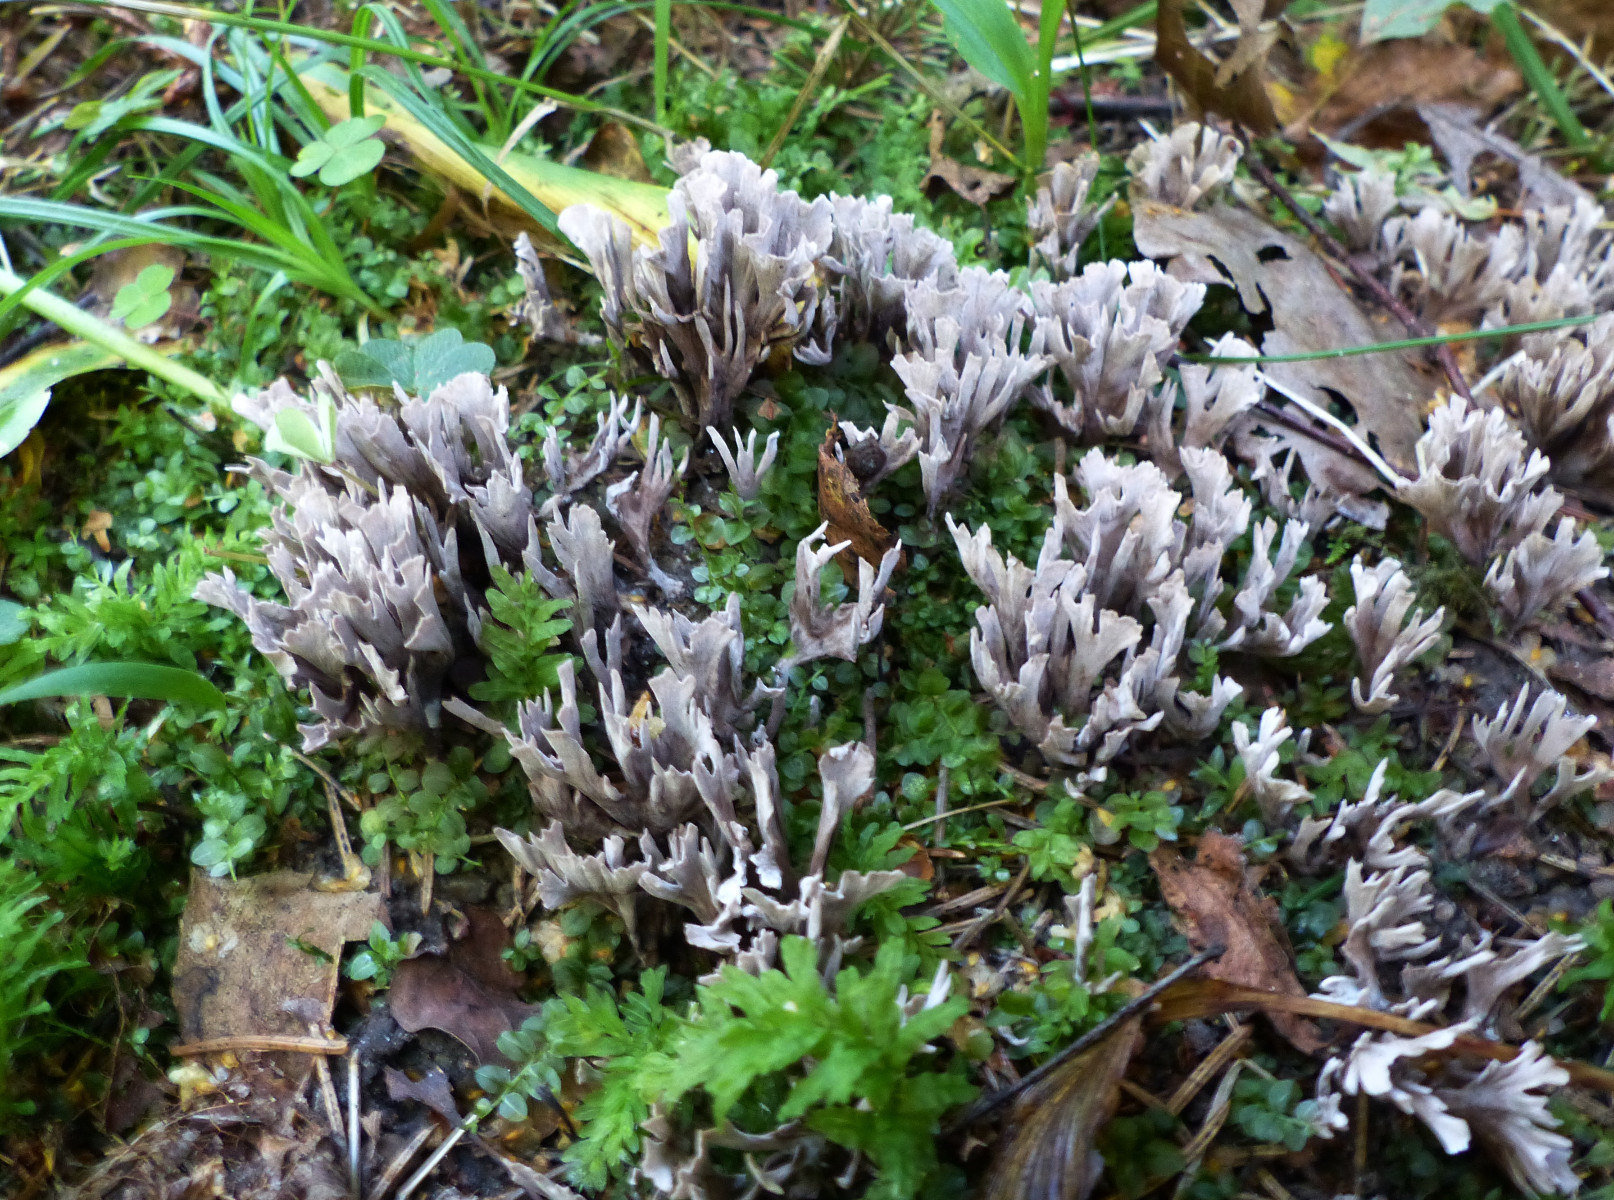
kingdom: Fungi
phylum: Basidiomycota
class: Agaricomycetes
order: Thelephorales
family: Thelephoraceae
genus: Thelephora
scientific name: Thelephora palmata
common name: grenet frynsesvamp
